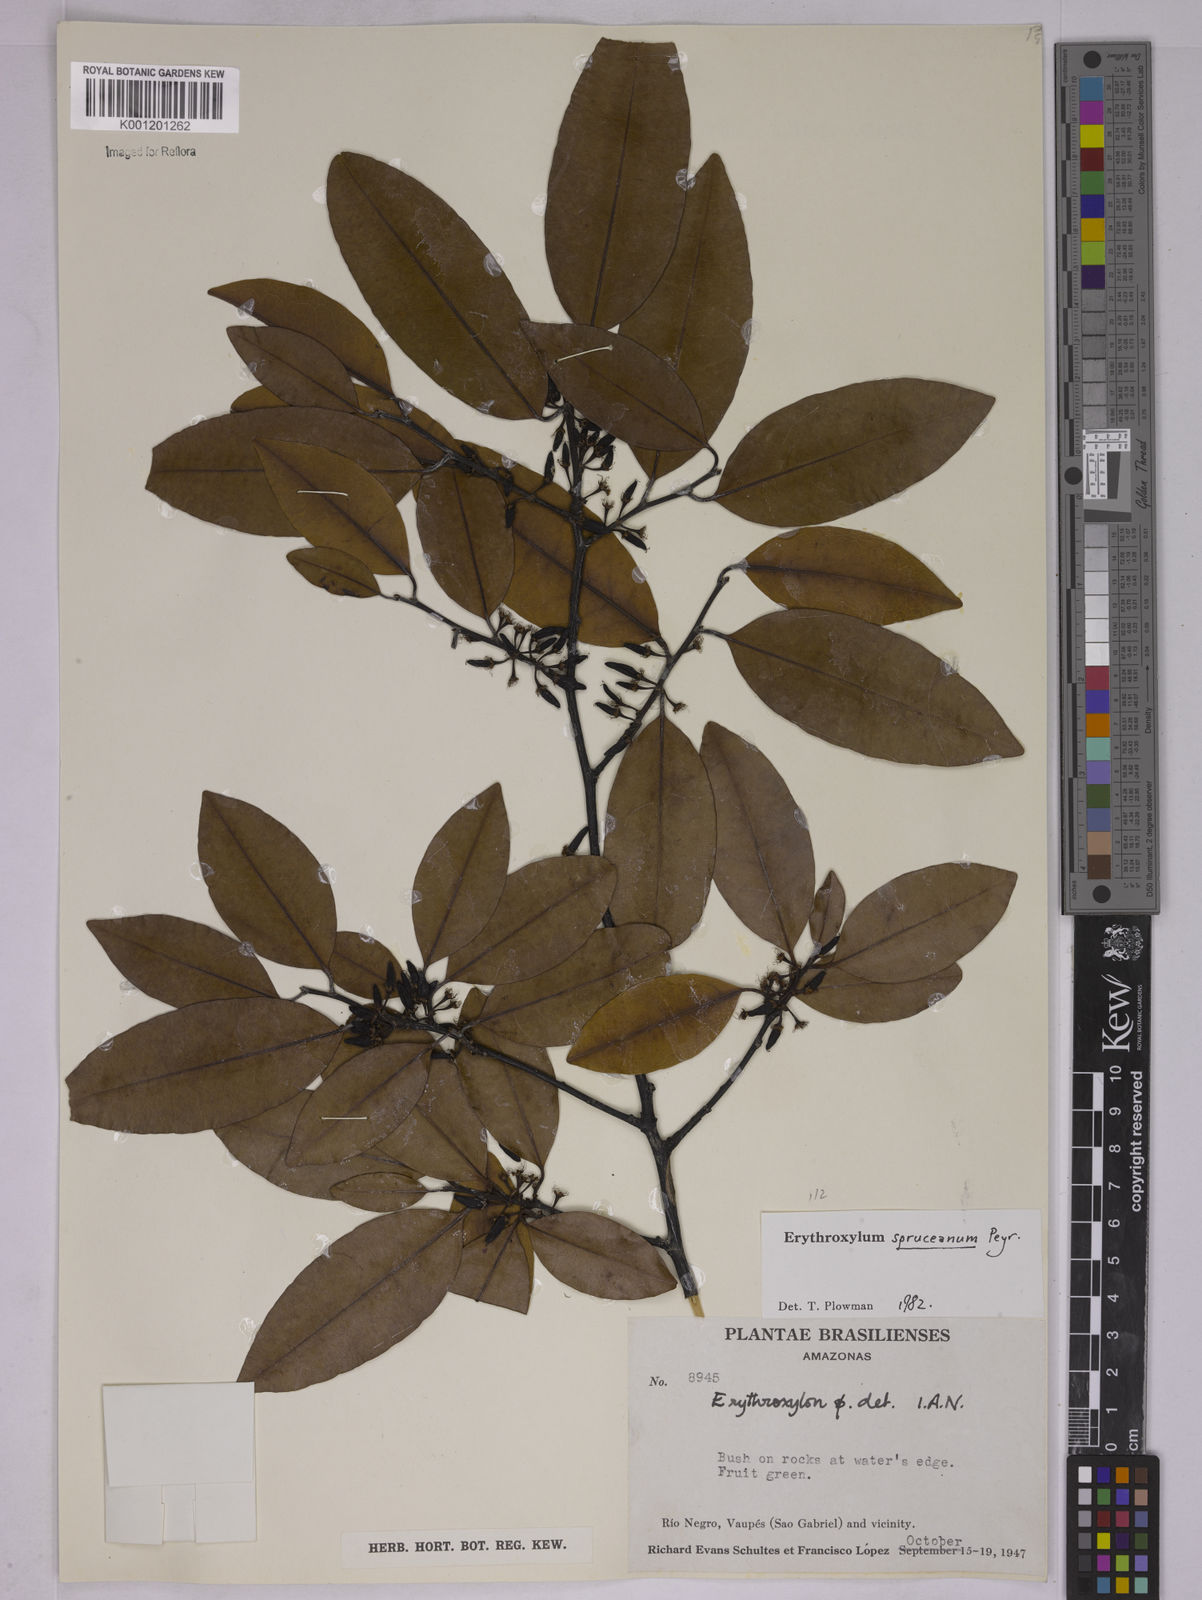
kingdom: Plantae
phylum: Tracheophyta
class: Magnoliopsida
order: Malpighiales
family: Erythroxylaceae
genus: Erythroxylum
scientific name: Erythroxylum spruceanum
